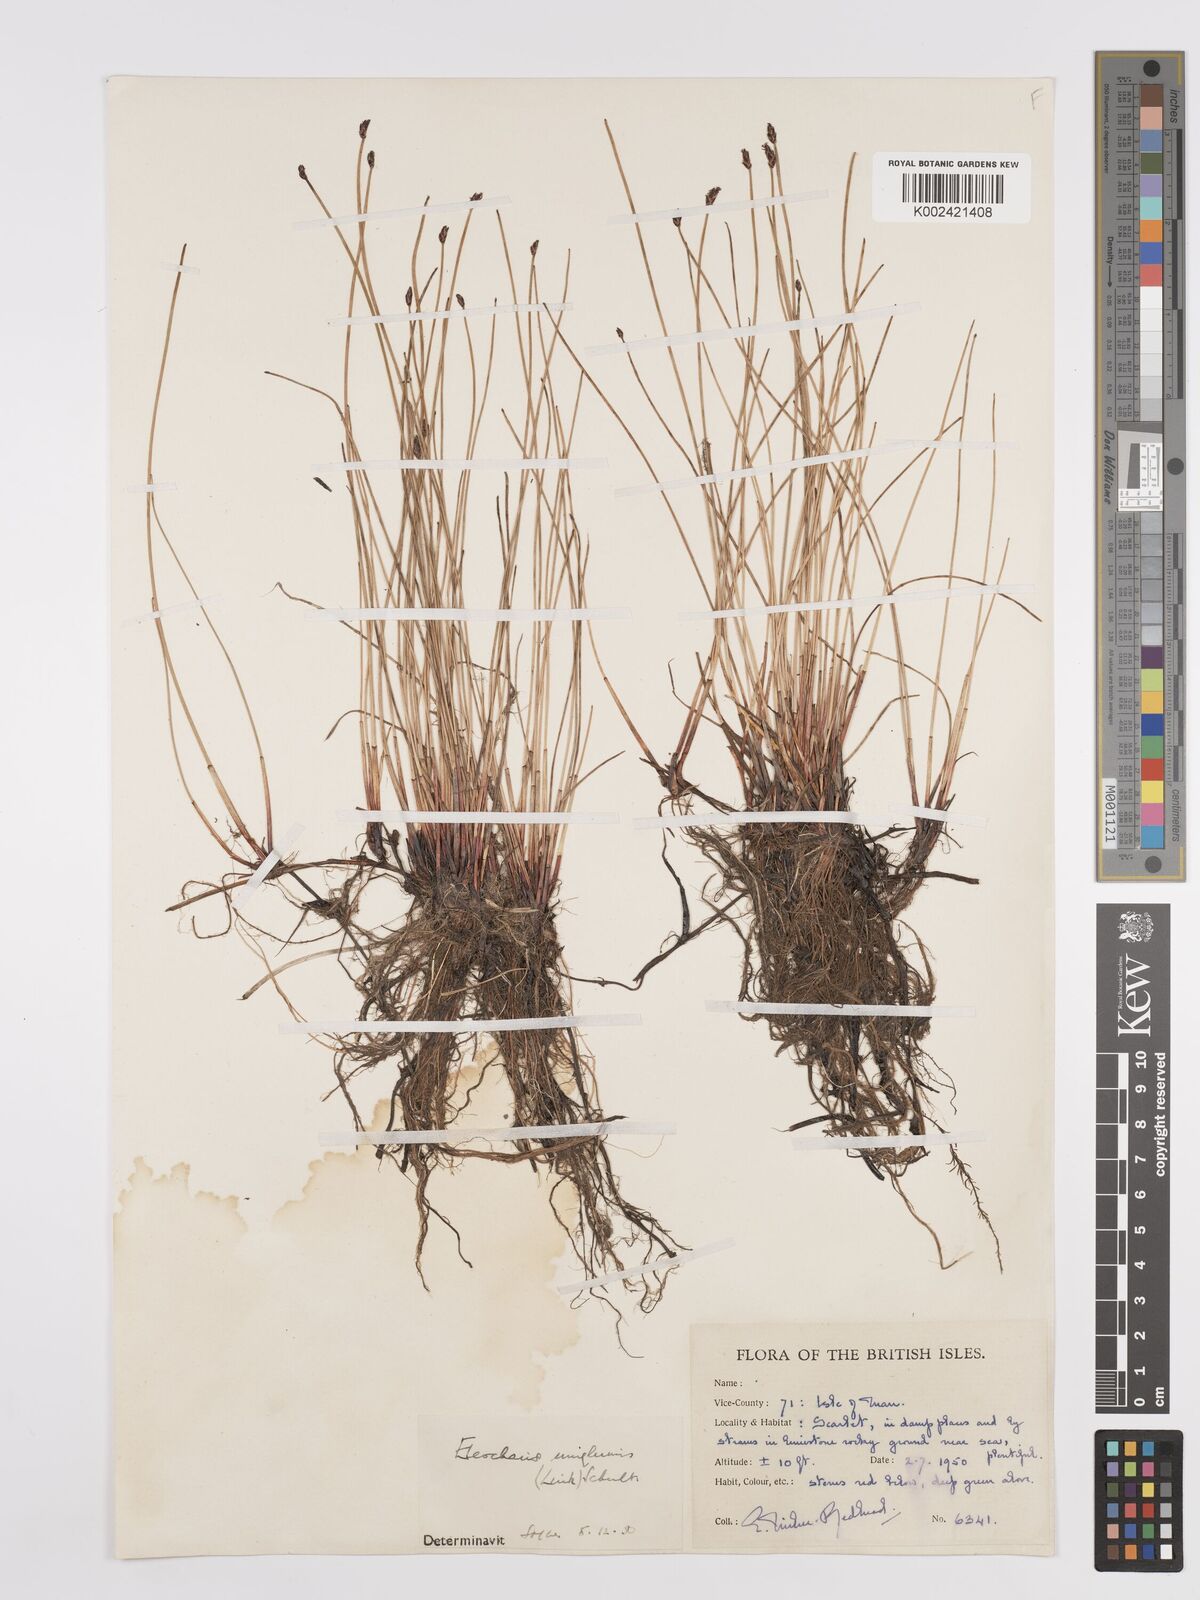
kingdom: Plantae
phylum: Tracheophyta
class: Liliopsida
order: Poales
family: Cyperaceae
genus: Eleocharis
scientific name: Eleocharis uniglumis
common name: Slender spike-rush
